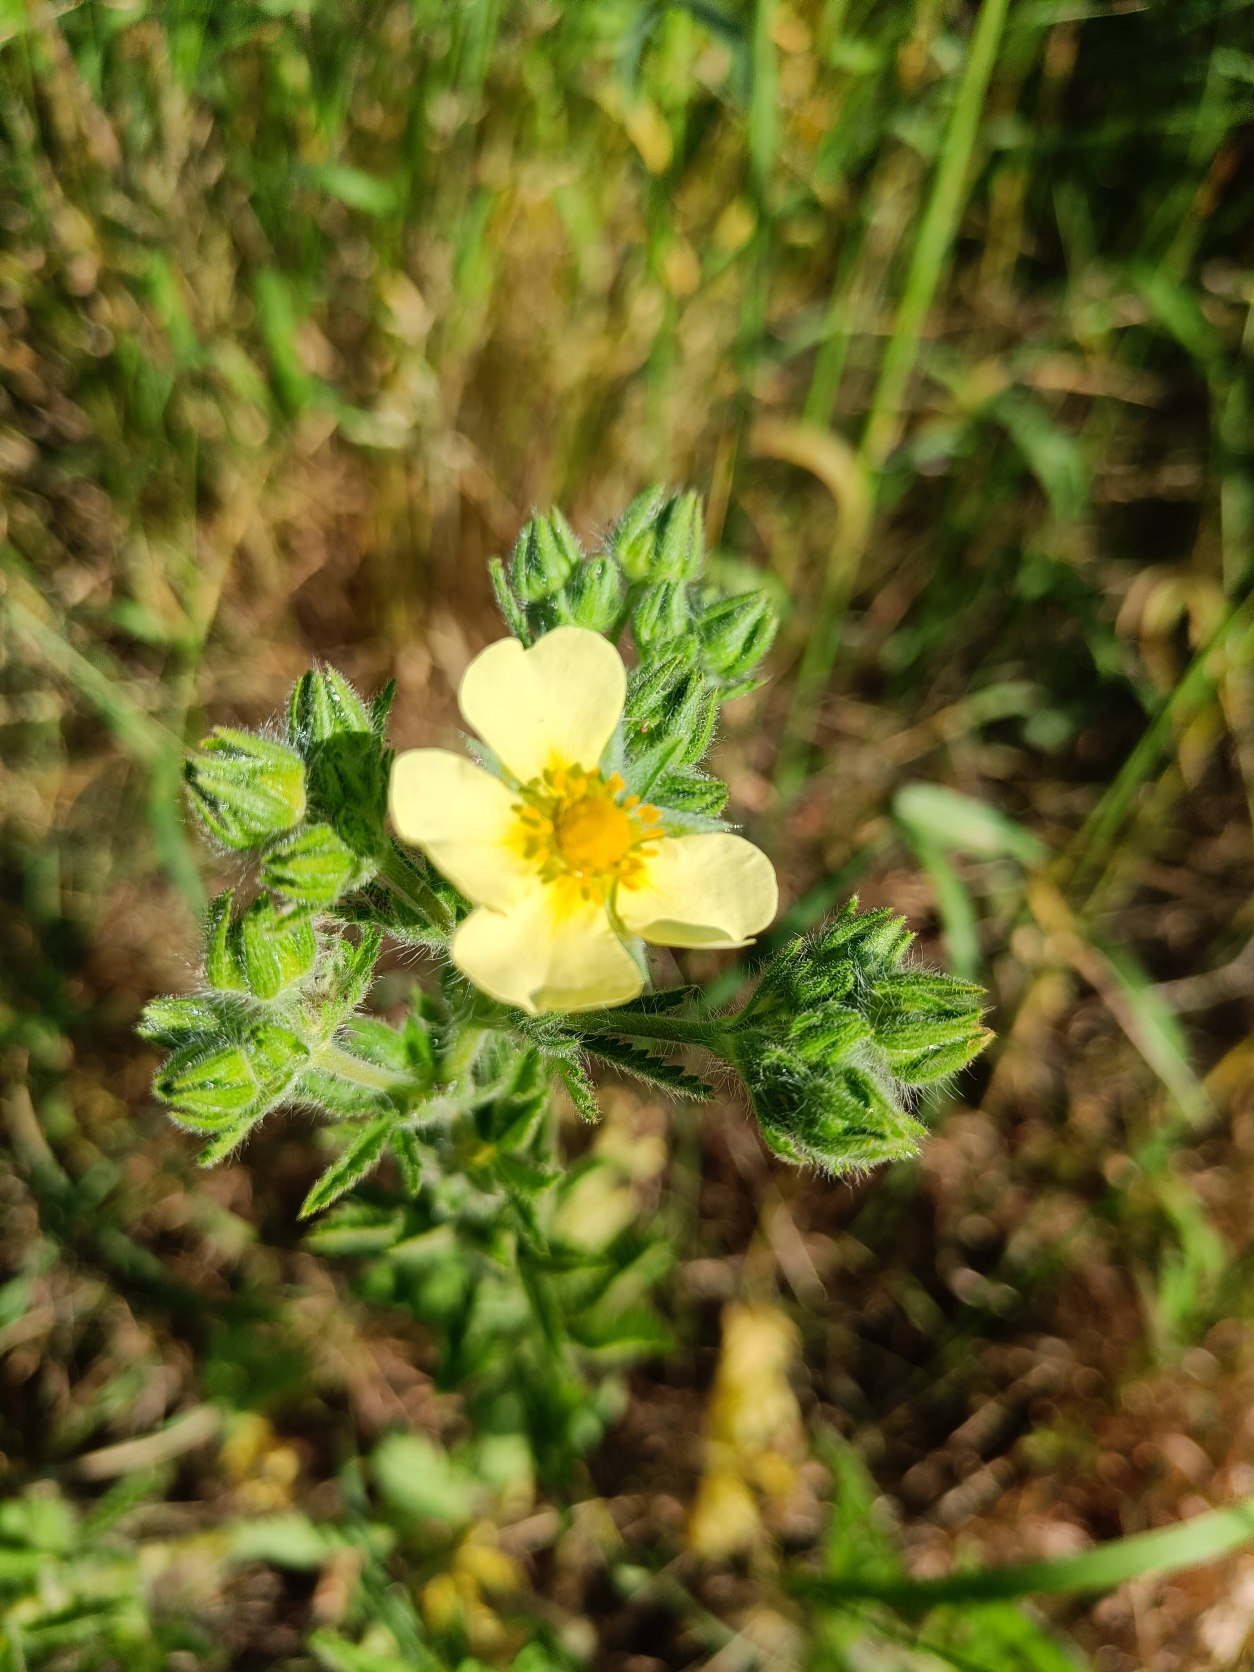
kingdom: Plantae
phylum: Tracheophyta
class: Magnoliopsida
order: Rosales
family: Rosaceae
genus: Potentilla
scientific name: Potentilla recta
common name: Rank potentil
